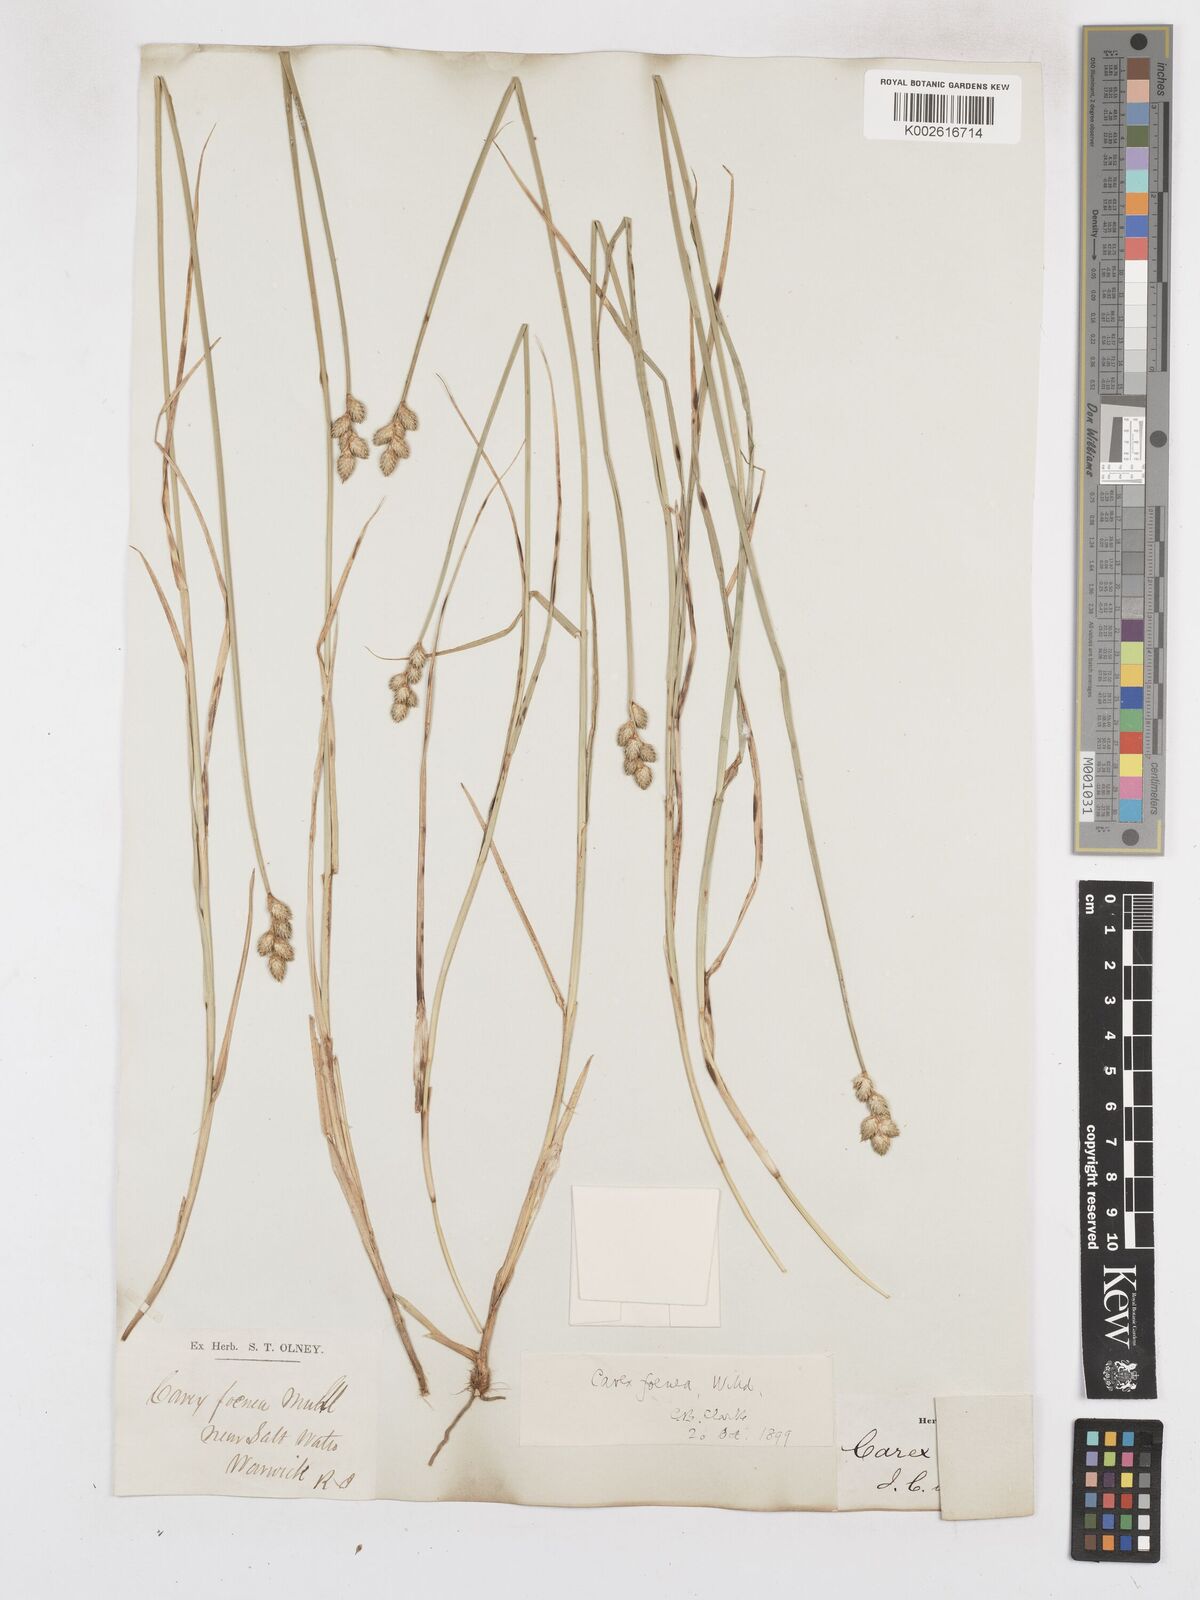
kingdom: Plantae
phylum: Tracheophyta
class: Liliopsida
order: Poales
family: Cyperaceae
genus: Carex
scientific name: Carex argyrantha
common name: Silvery-flowered sedge
